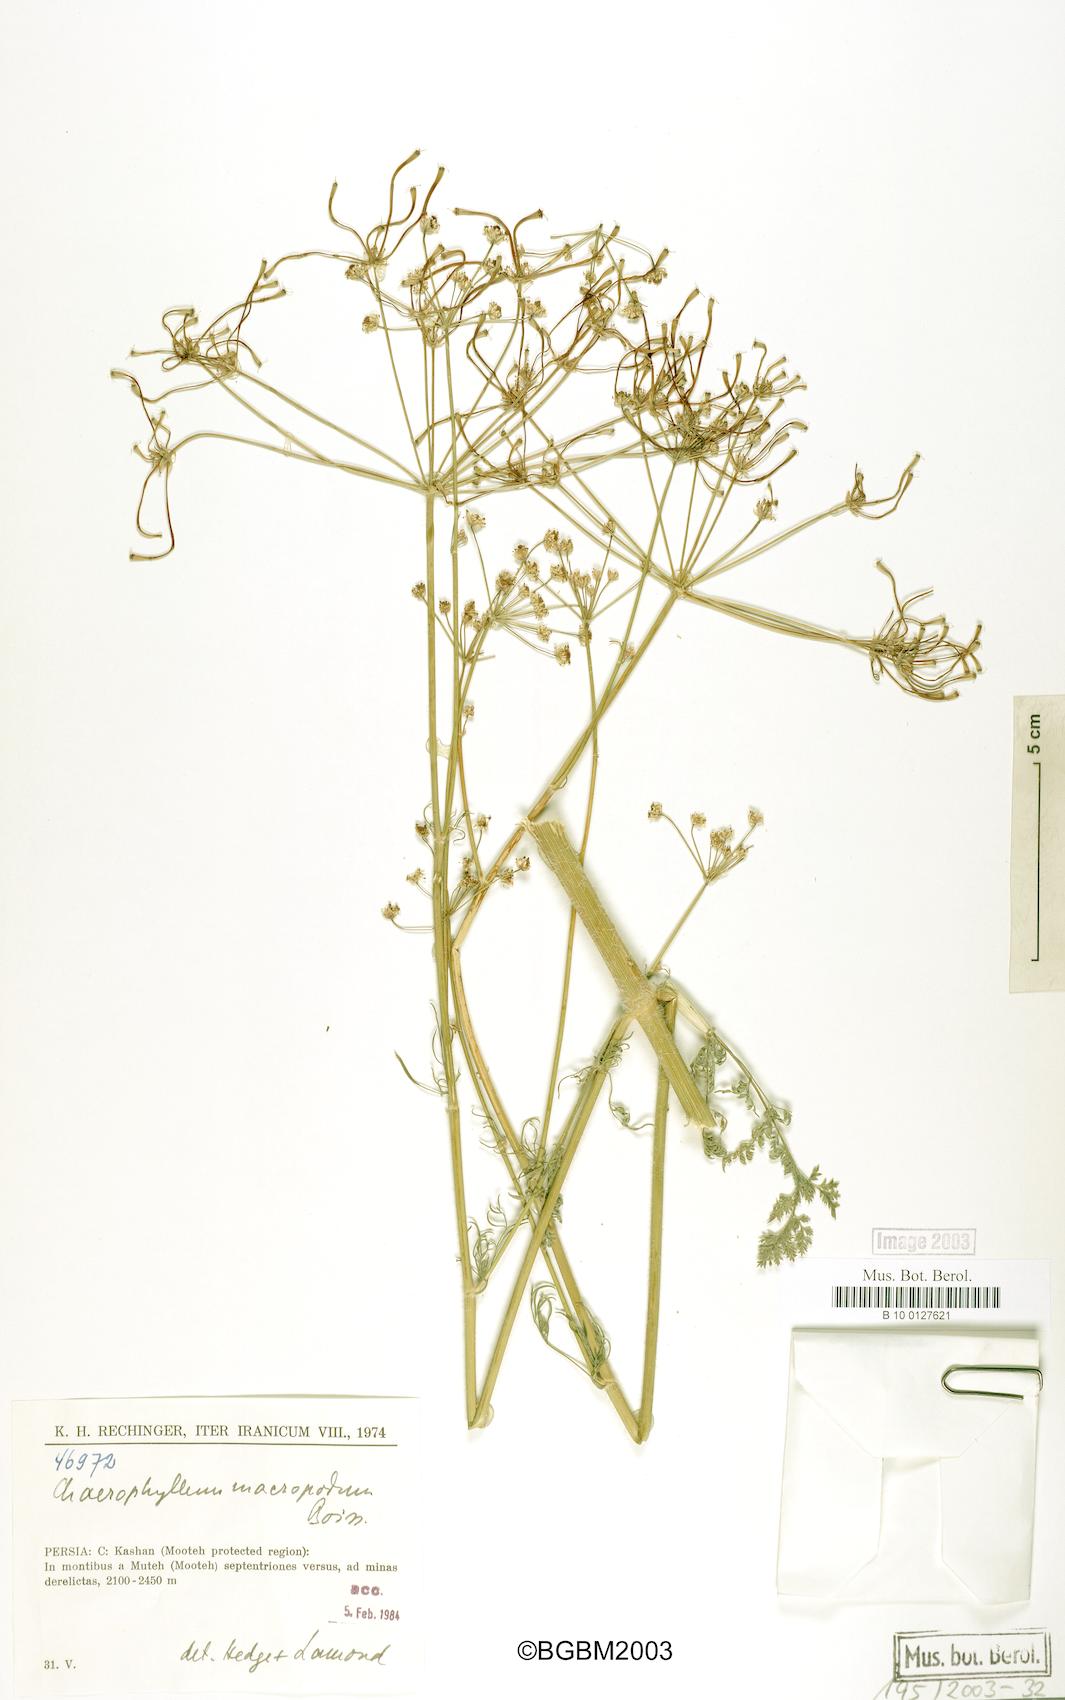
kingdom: Plantae
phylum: Tracheophyta
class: Magnoliopsida
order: Apiales
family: Apiaceae
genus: Chaerophyllum
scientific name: Chaerophyllum macropodum
